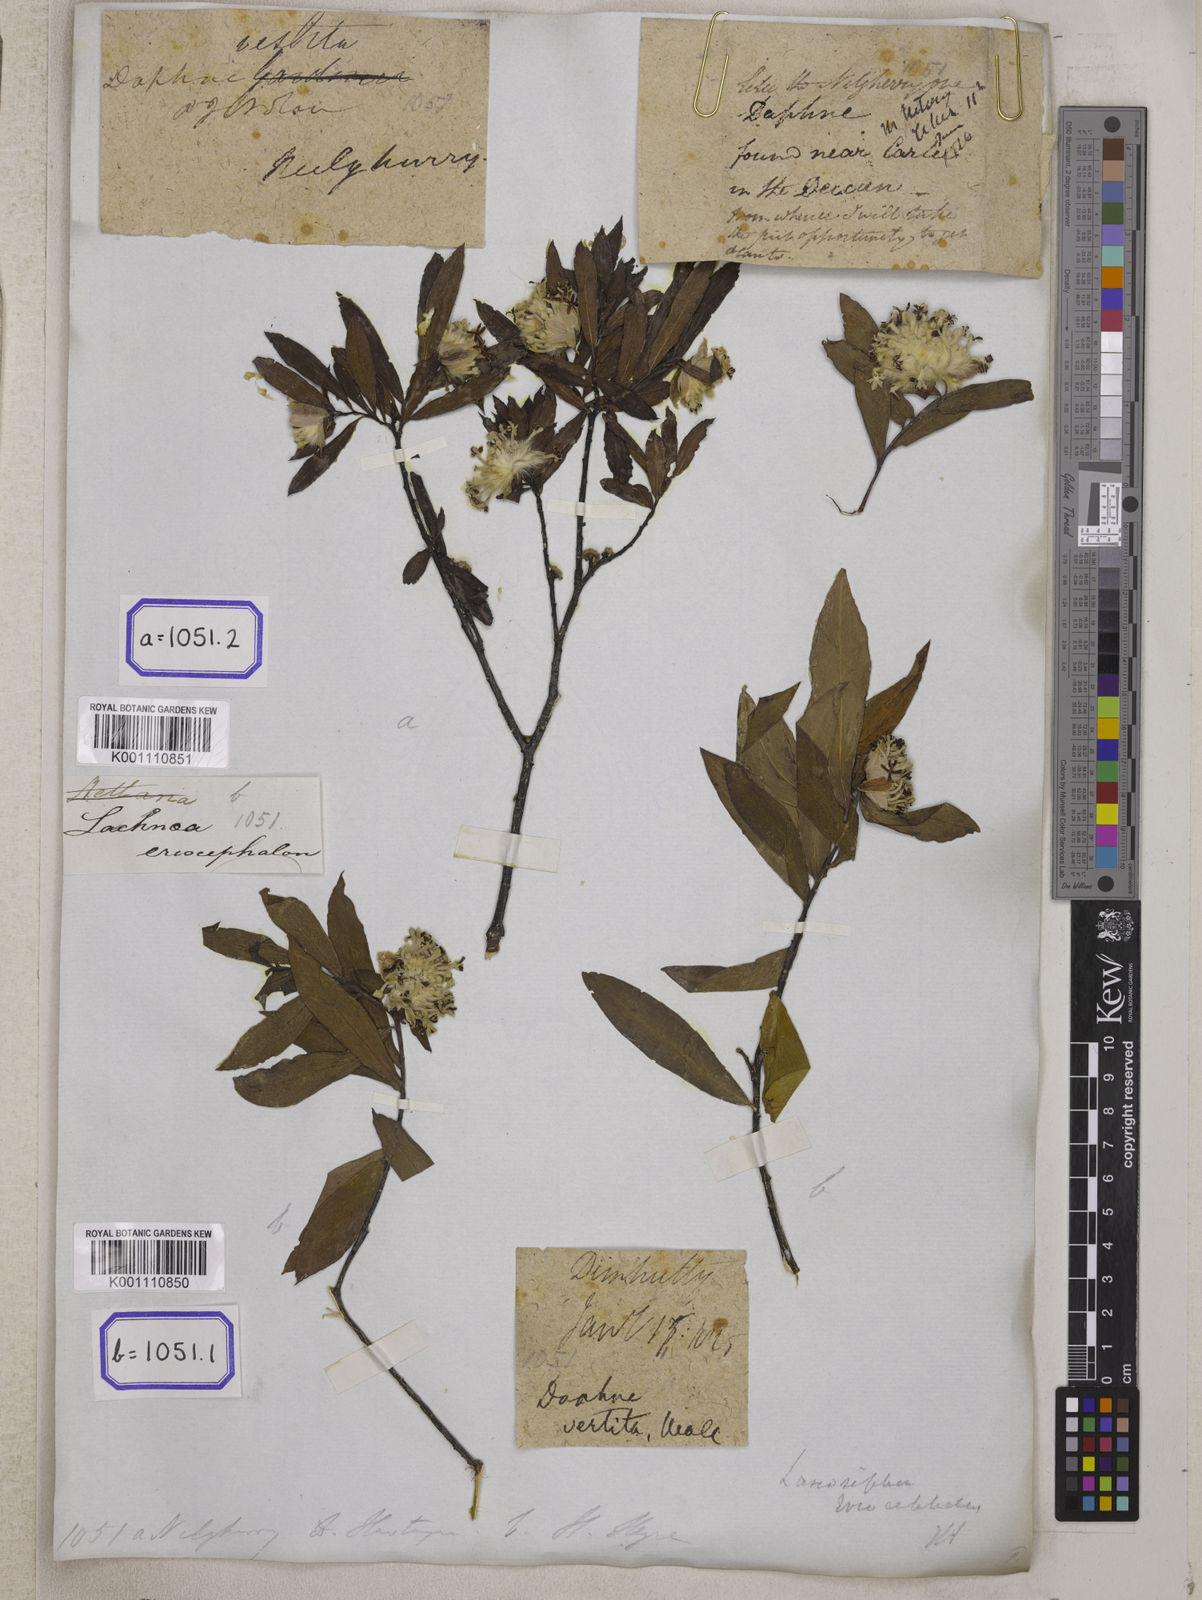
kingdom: Plantae
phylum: Tracheophyta
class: Magnoliopsida
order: Malvales
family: Thymelaeaceae
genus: Daphne
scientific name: Daphne
